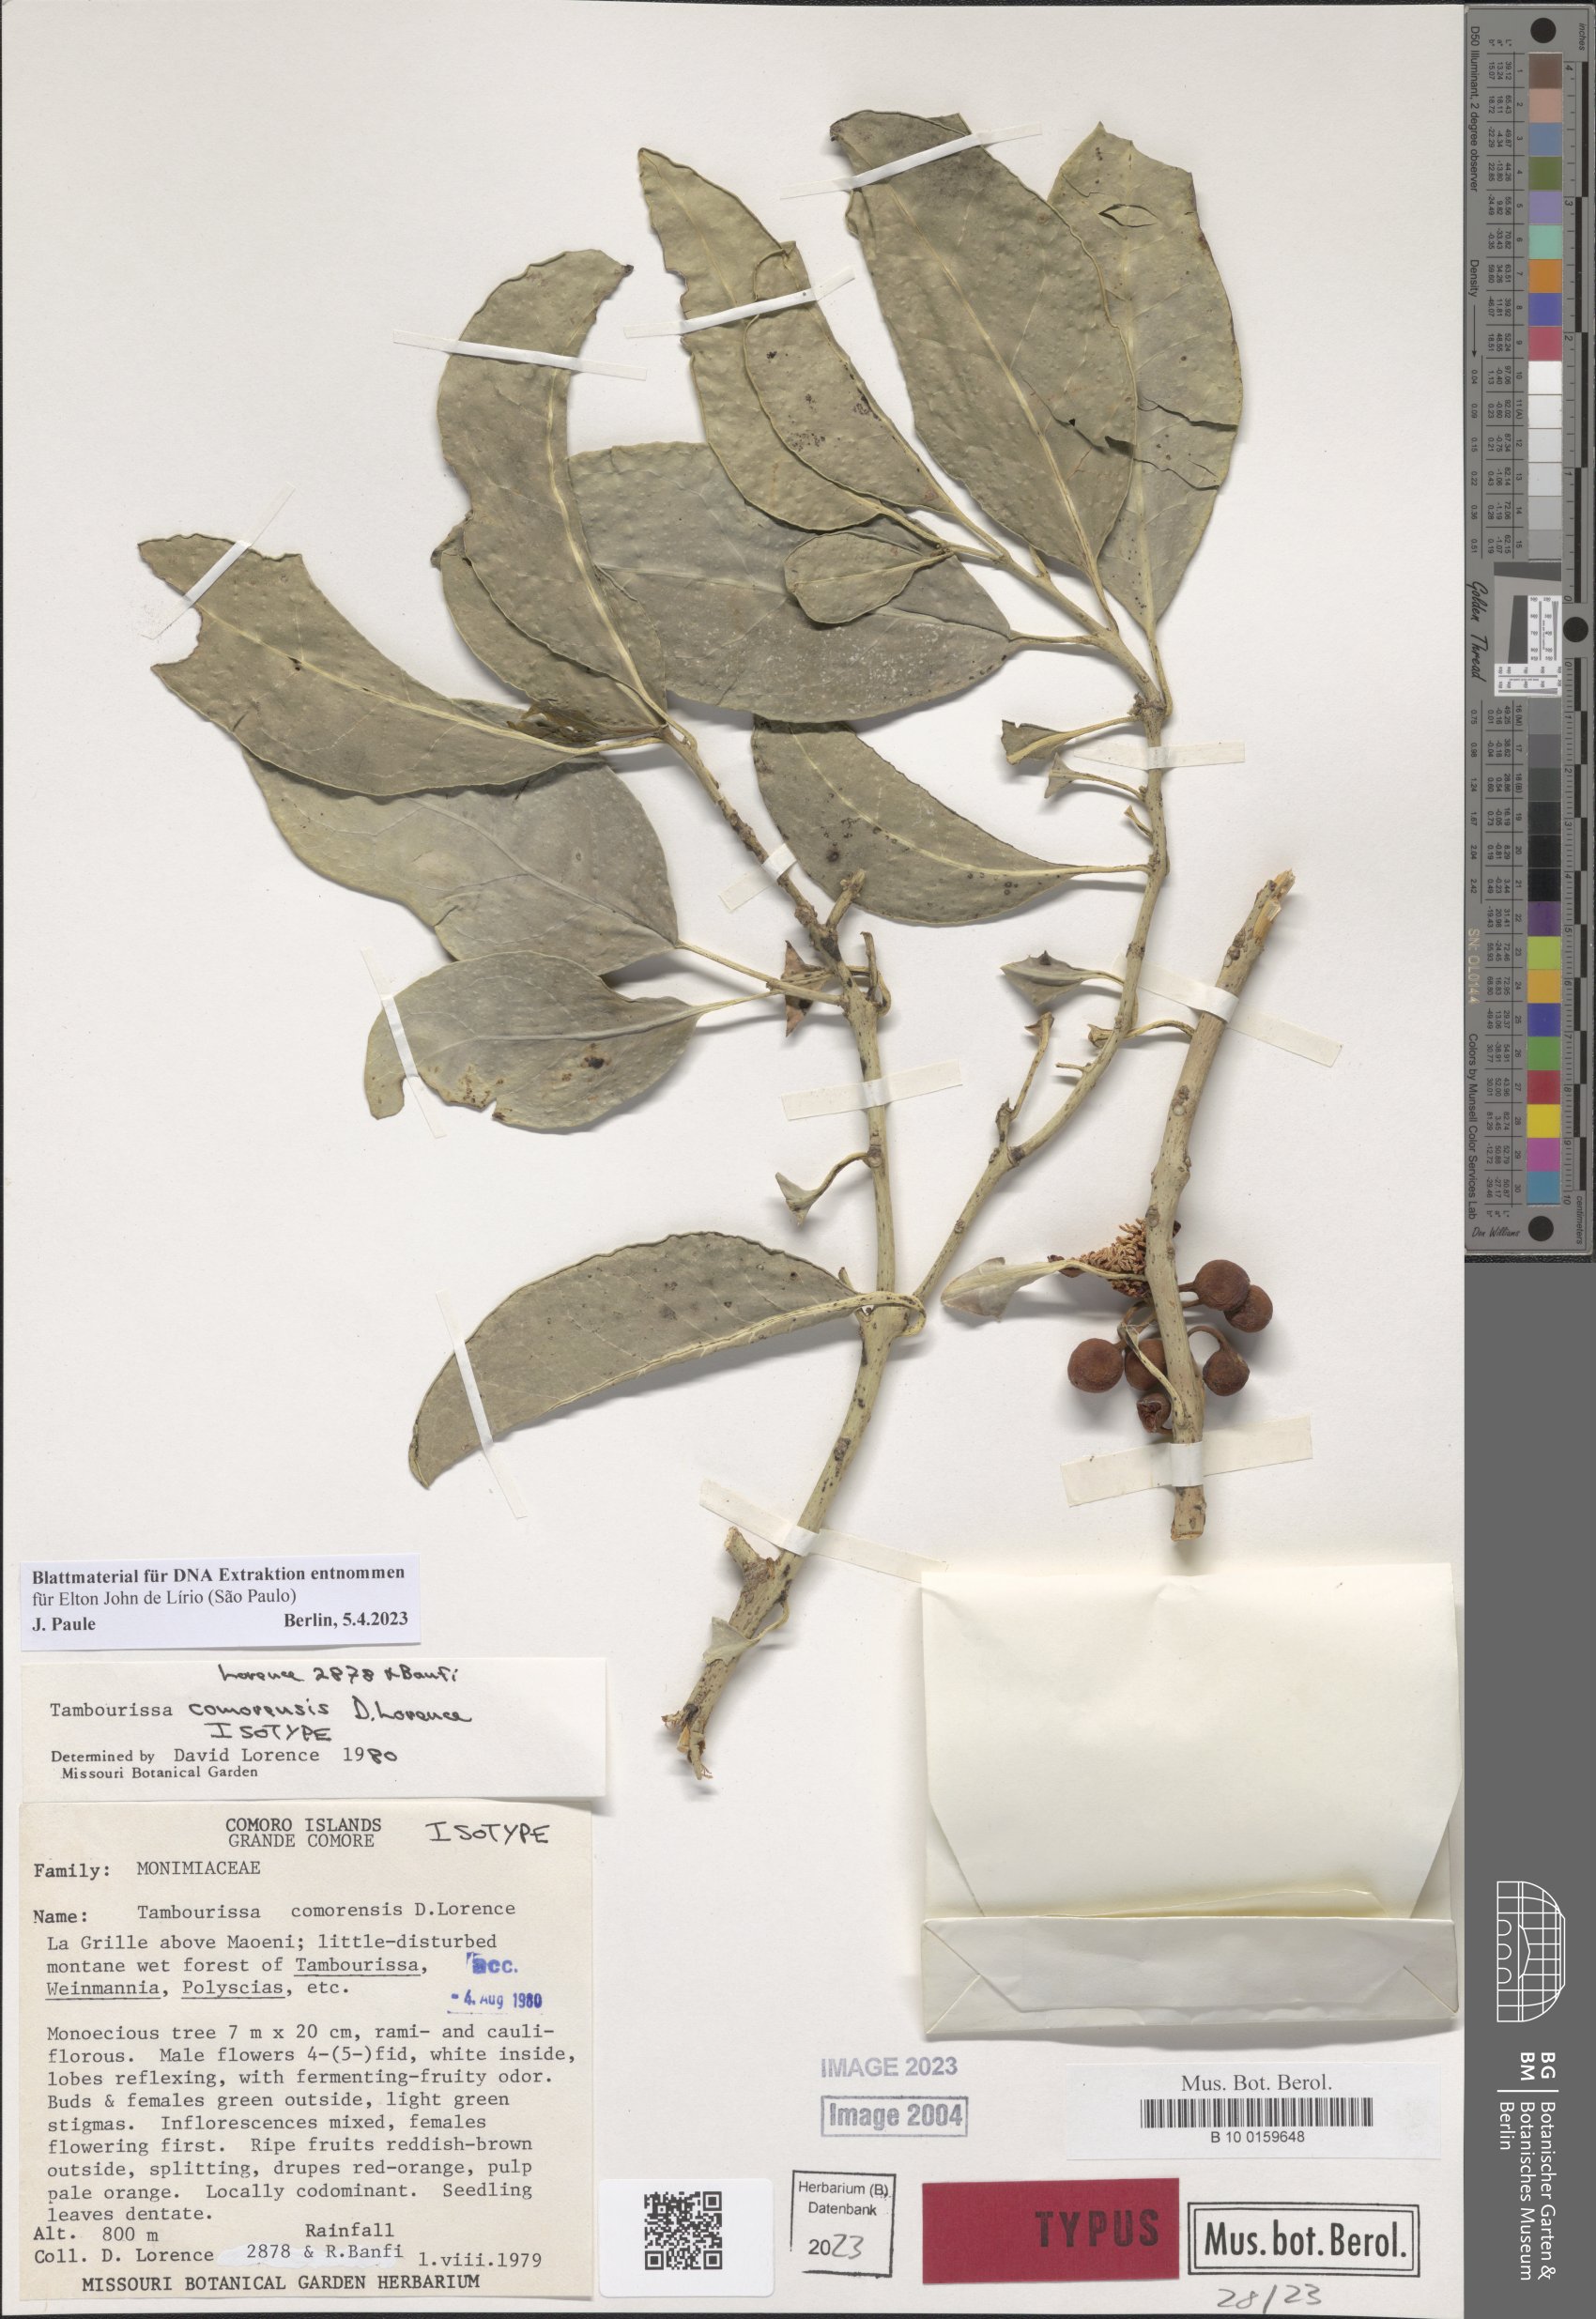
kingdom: Plantae
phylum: Tracheophyta
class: Magnoliopsida
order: Laurales
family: Monimiaceae
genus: Tambourissa
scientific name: Tambourissa comorensis
